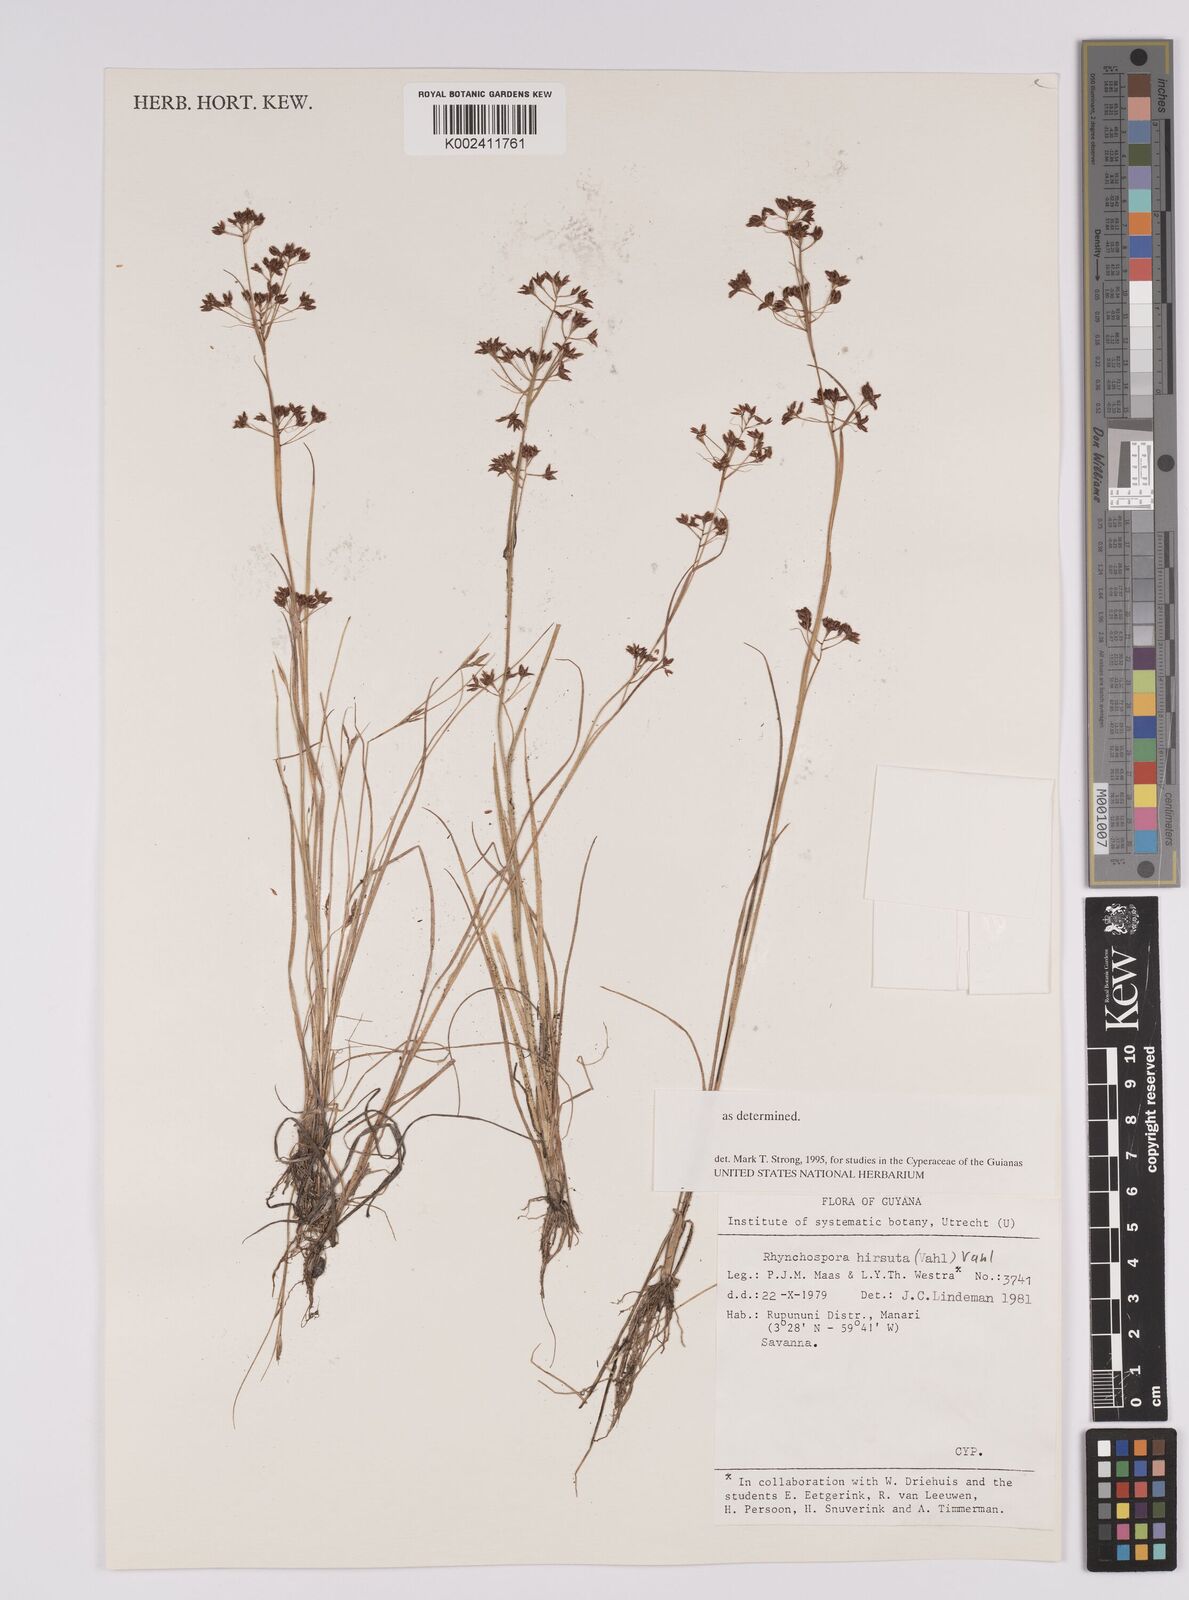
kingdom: Plantae
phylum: Tracheophyta
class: Liliopsida
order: Poales
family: Cyperaceae
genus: Rhynchospora
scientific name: Rhynchospora hirsuta
